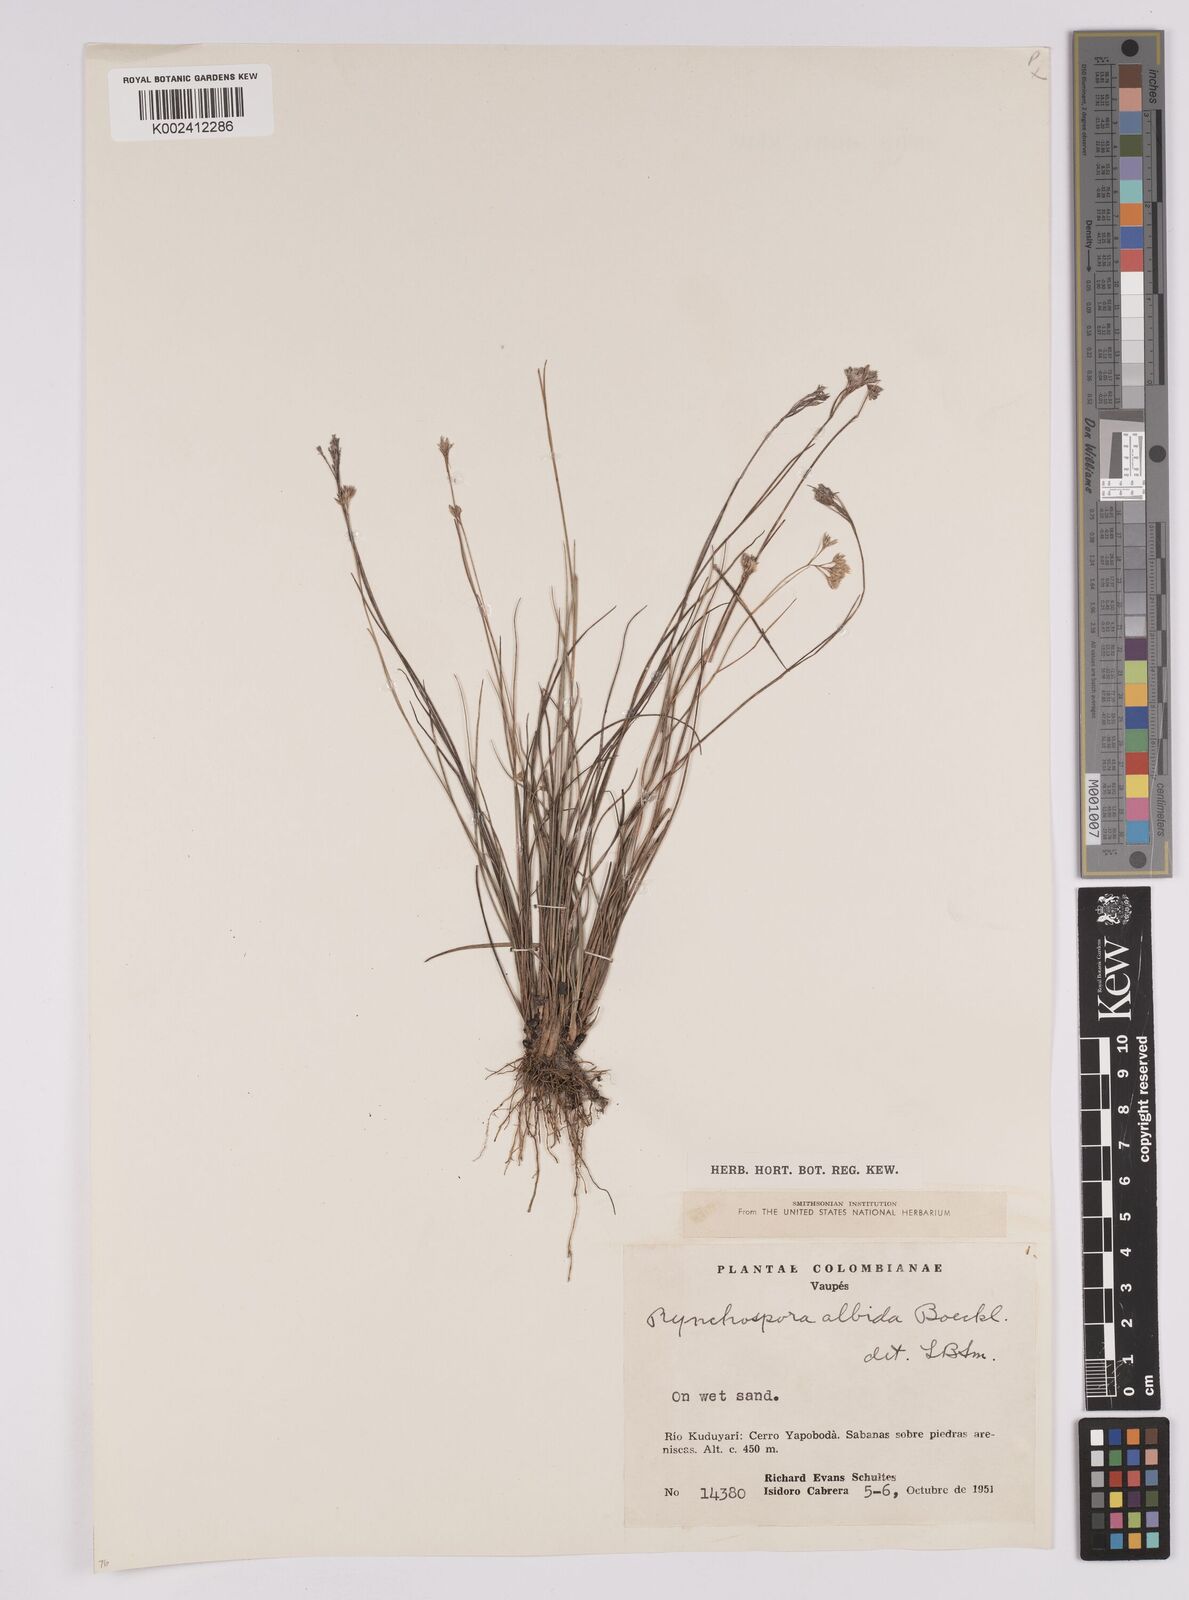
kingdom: Plantae
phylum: Tracheophyta
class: Liliopsida
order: Poales
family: Cyperaceae
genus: Rhynchospora
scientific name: Rhynchospora albida
